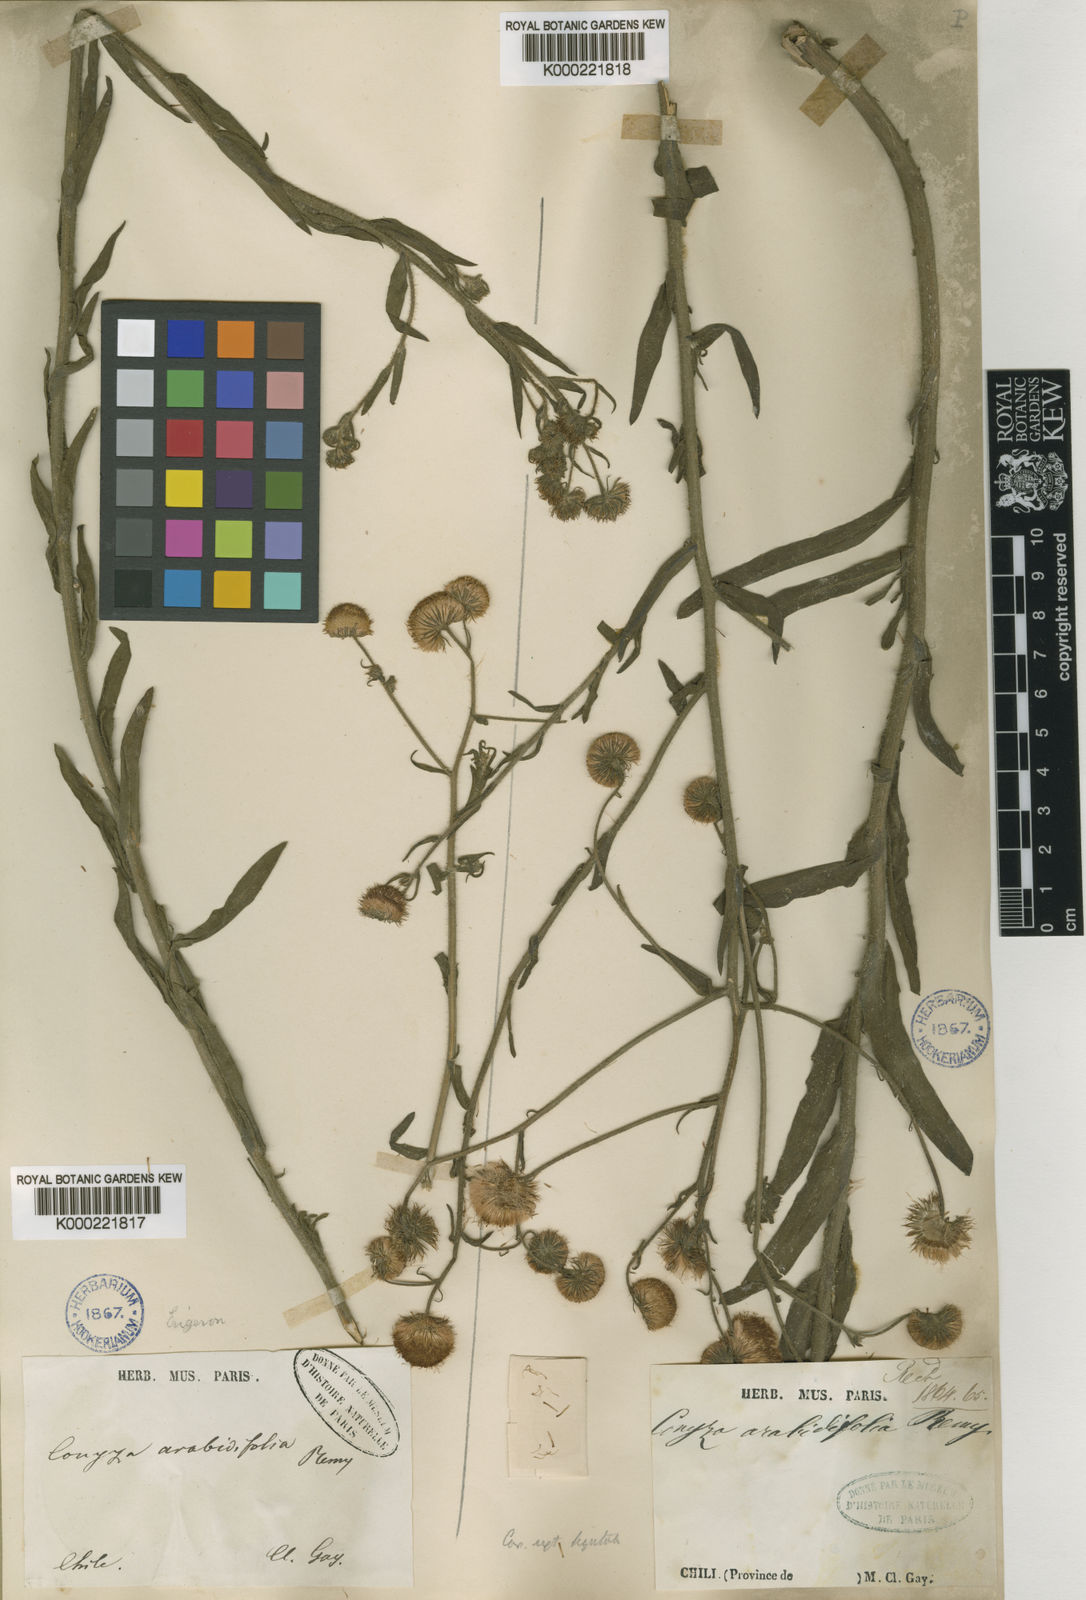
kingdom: Plantae
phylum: Tracheophyta
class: Magnoliopsida
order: Asterales
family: Asteraceae
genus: Erigeron
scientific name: Erigeron
